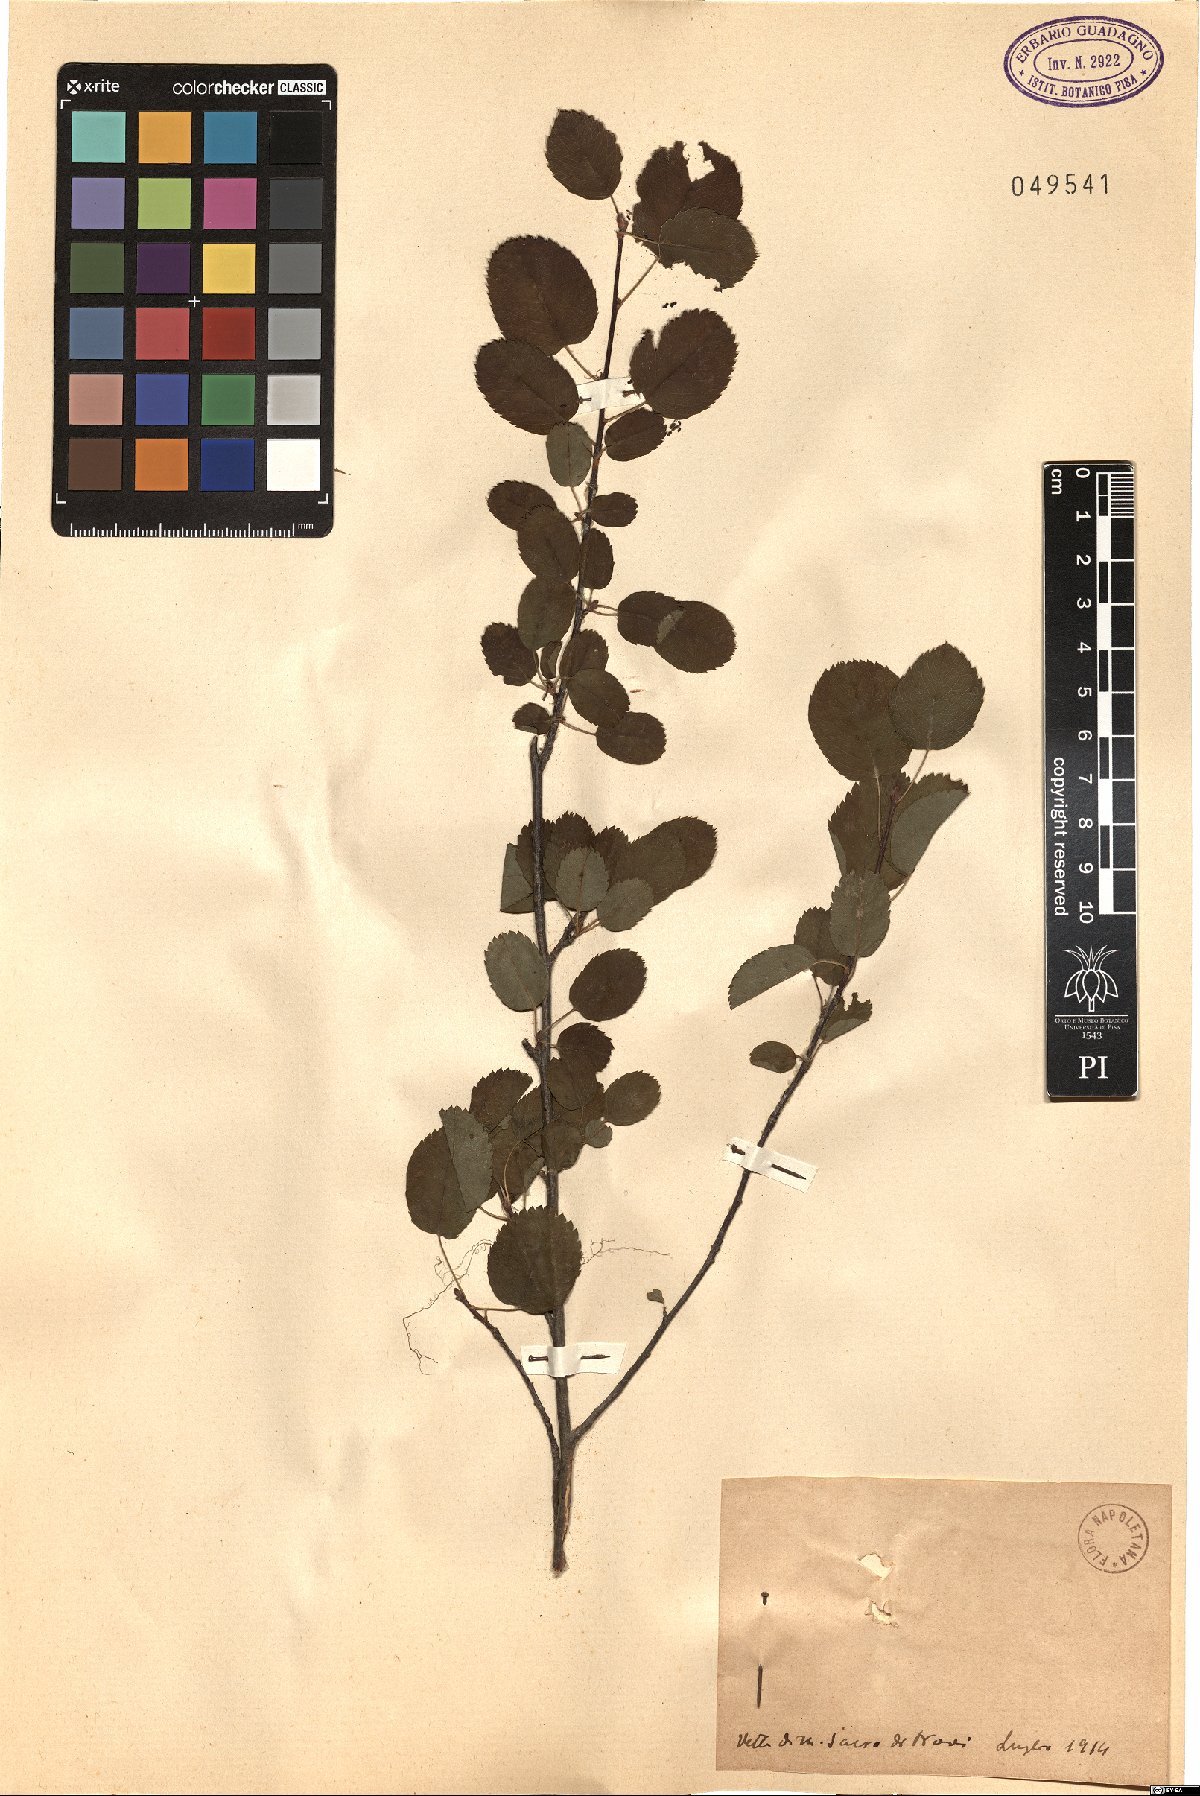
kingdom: Plantae
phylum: Tracheophyta
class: Magnoliopsida
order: Rosales
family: Rosaceae
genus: Amelanchier
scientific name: Amelanchier
